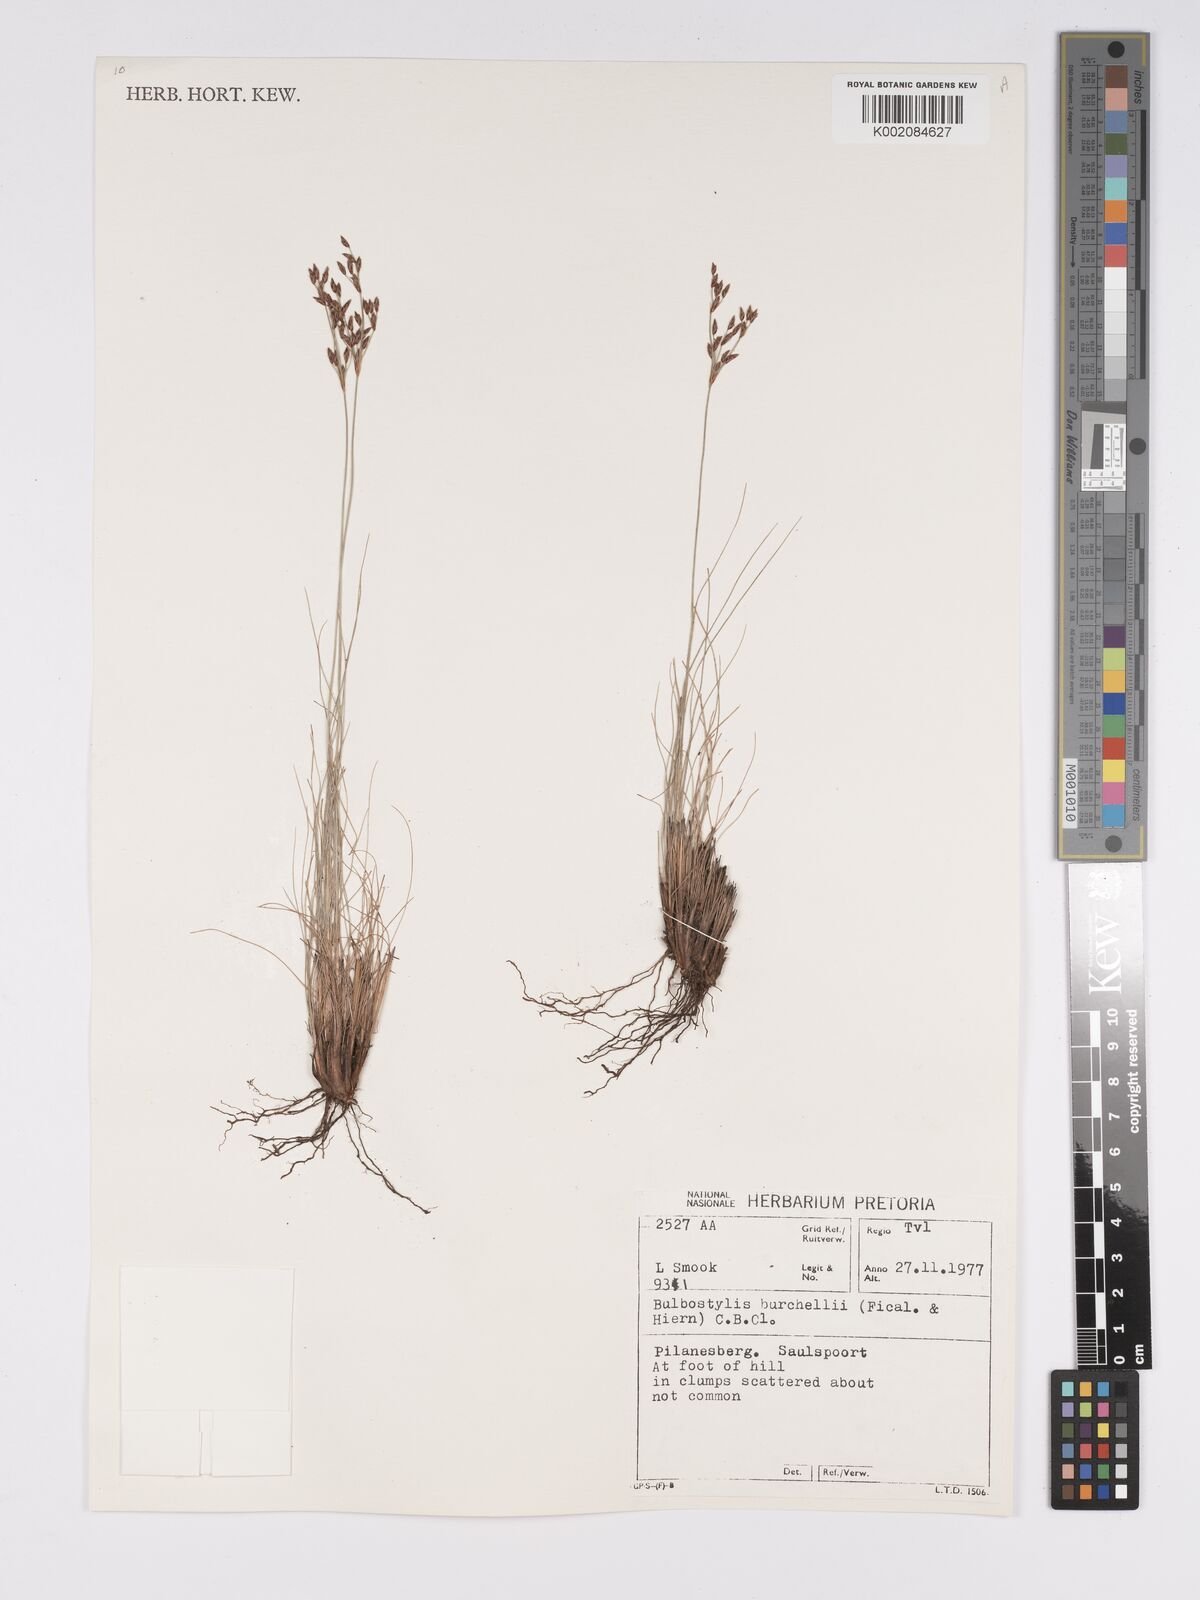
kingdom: Plantae
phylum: Tracheophyta
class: Liliopsida
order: Poales
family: Cyperaceae
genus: Bulbostylis
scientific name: Bulbostylis
